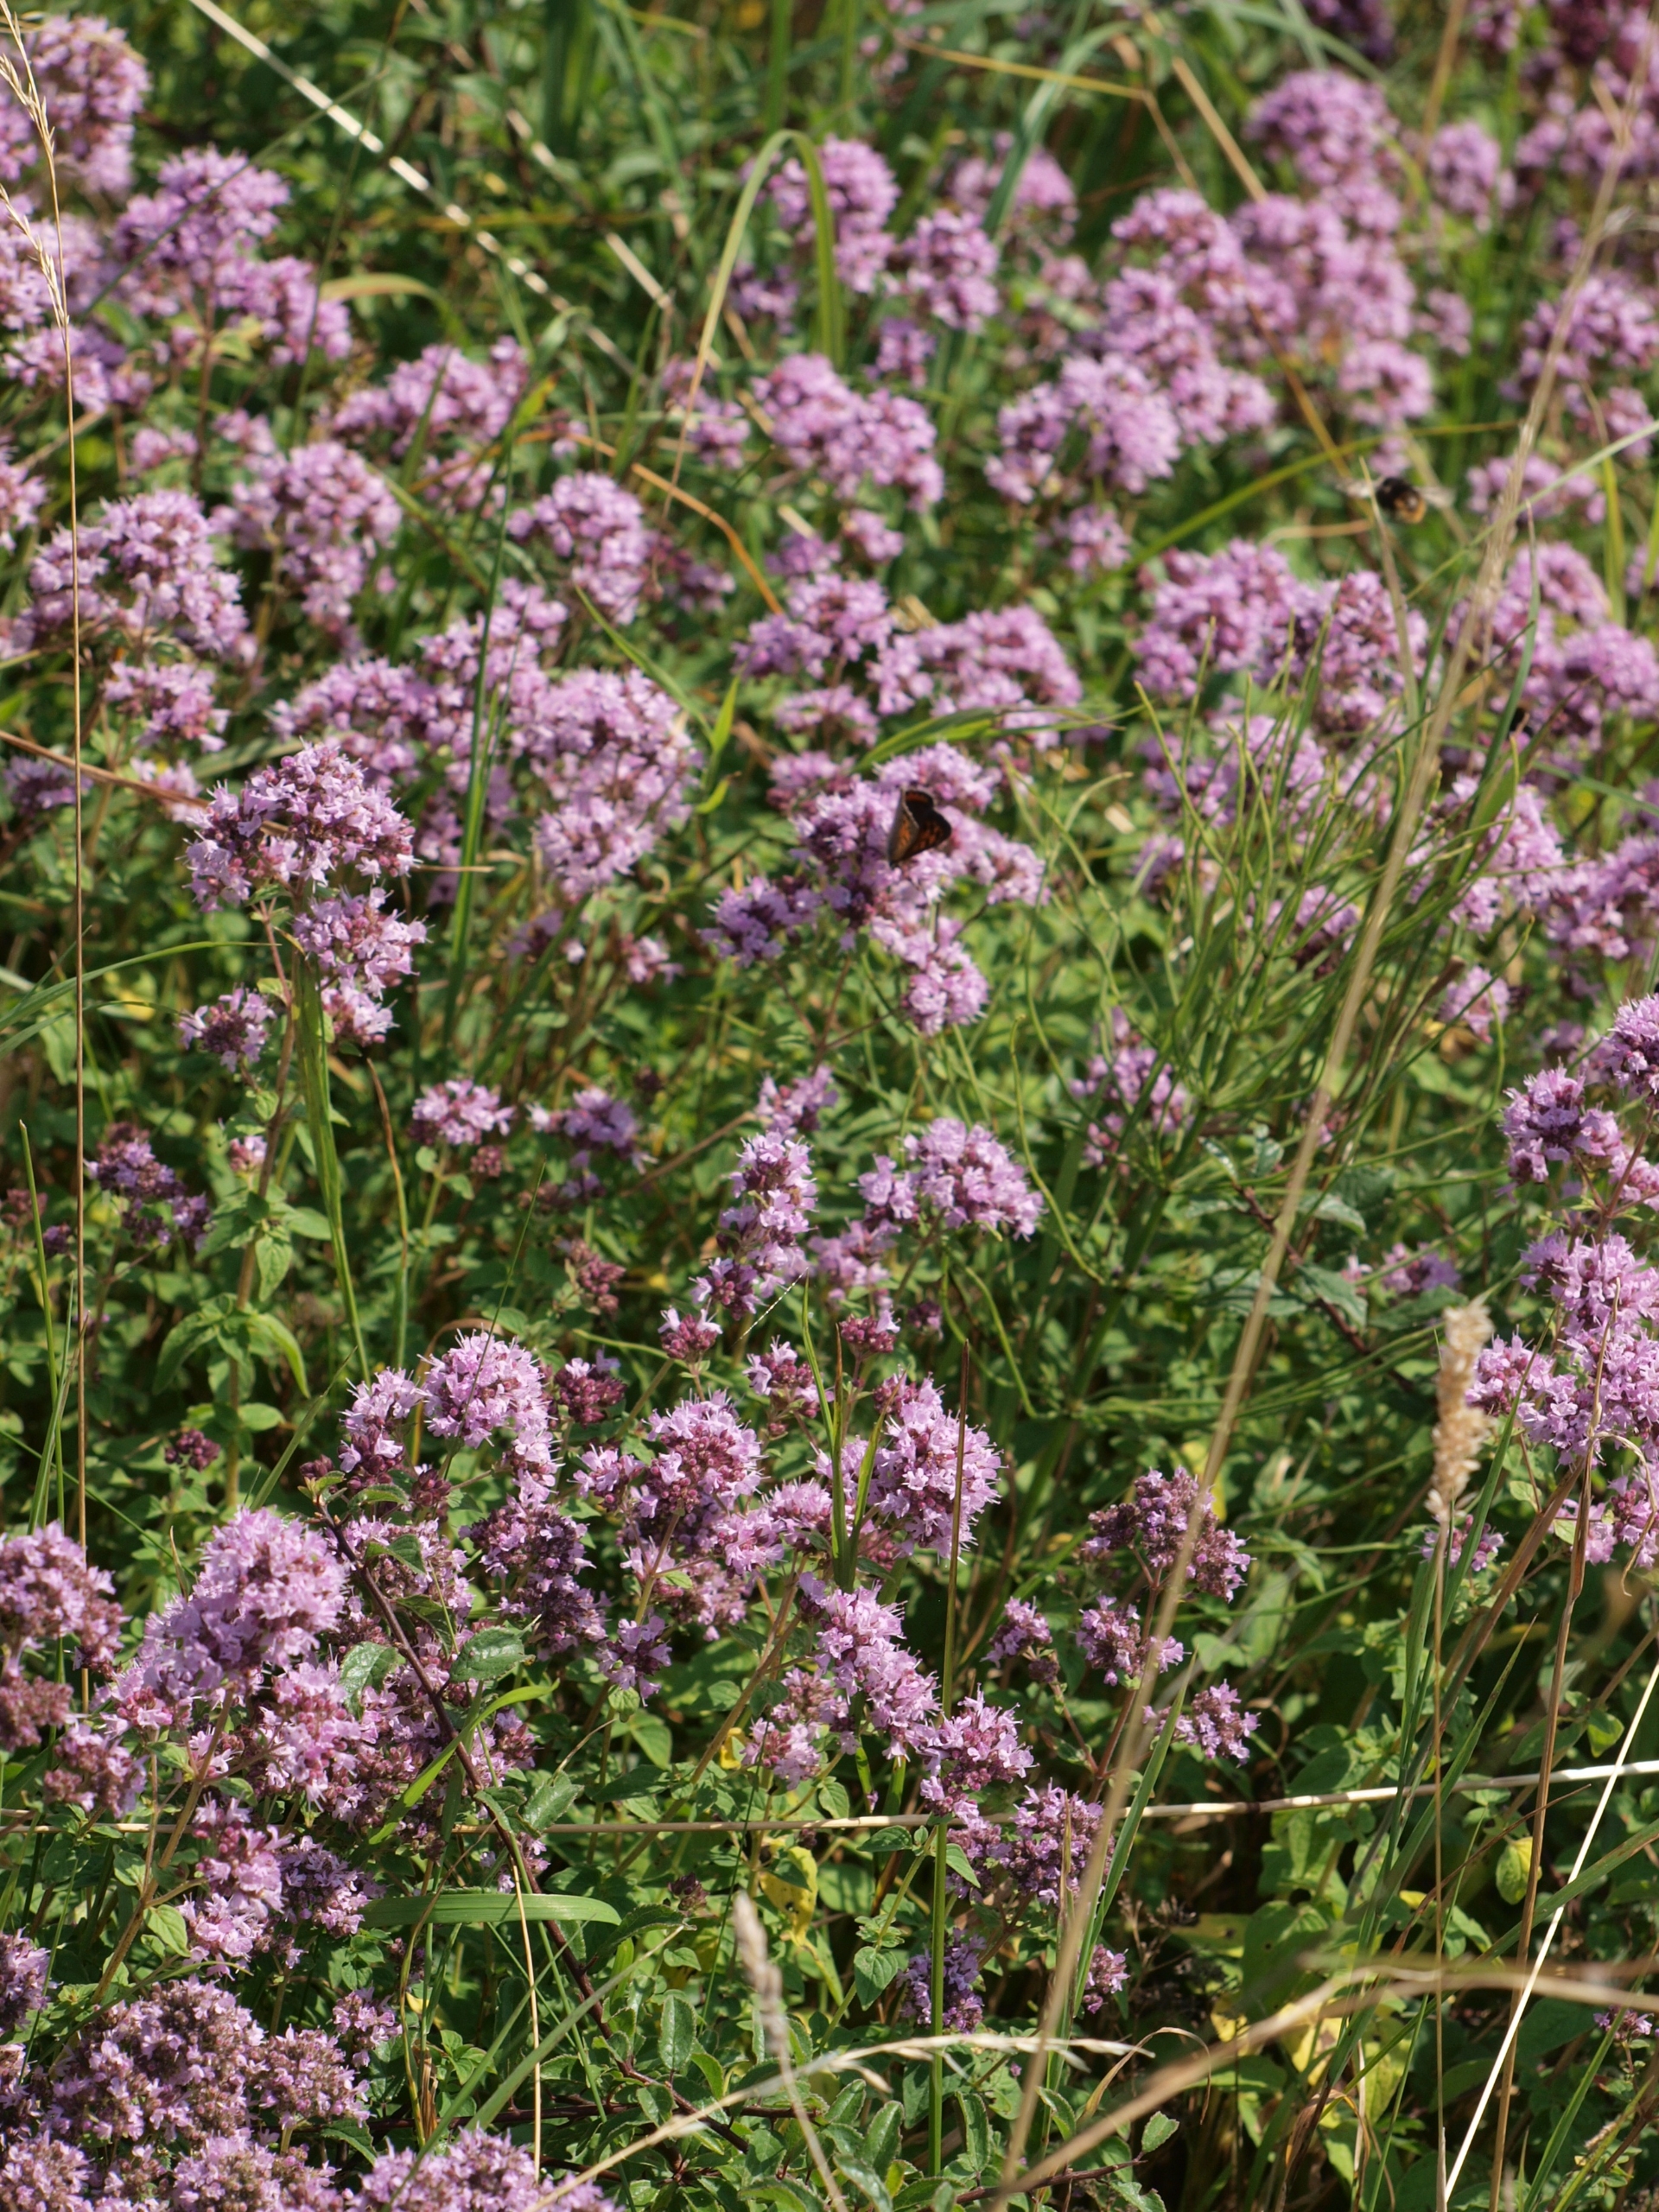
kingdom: Plantae
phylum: Tracheophyta
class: Magnoliopsida
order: Lamiales
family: Lamiaceae
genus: Origanum
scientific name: Origanum vulgare
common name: Merian
